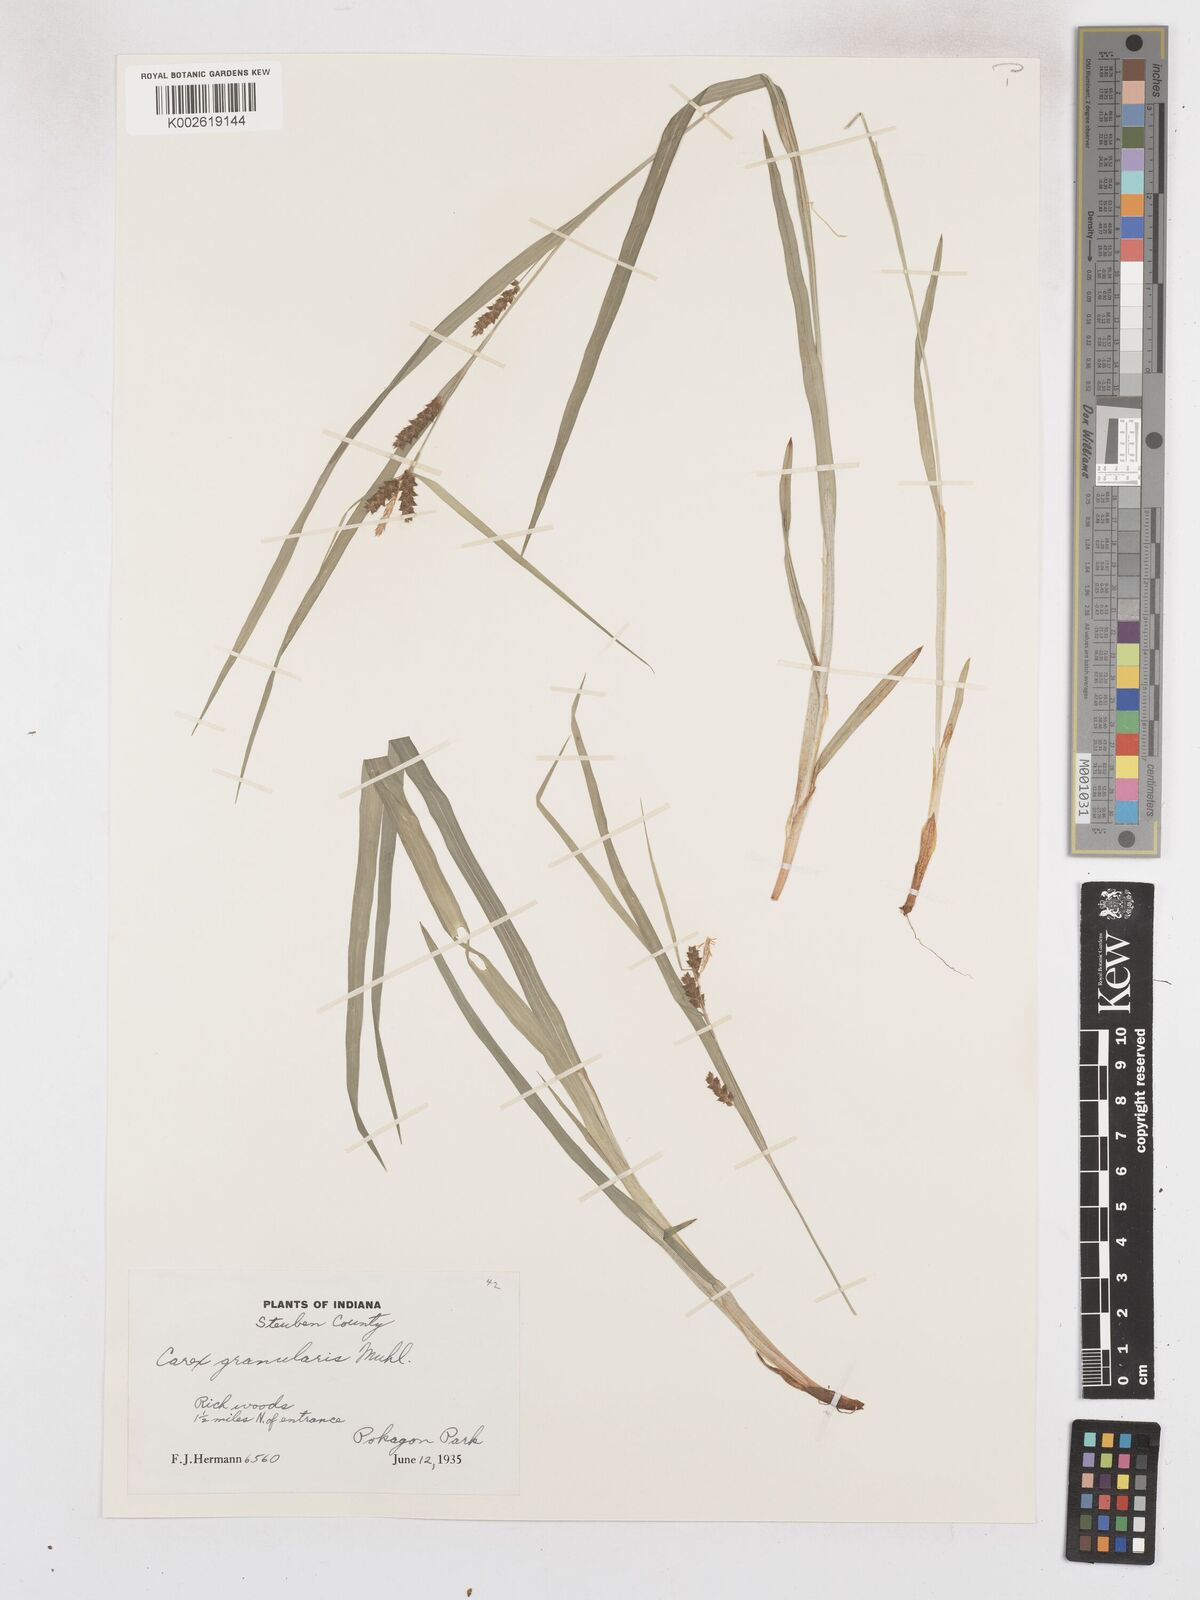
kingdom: Plantae
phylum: Tracheophyta
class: Liliopsida
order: Poales
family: Cyperaceae
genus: Carex
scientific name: Carex granularis
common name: Granular sedge
